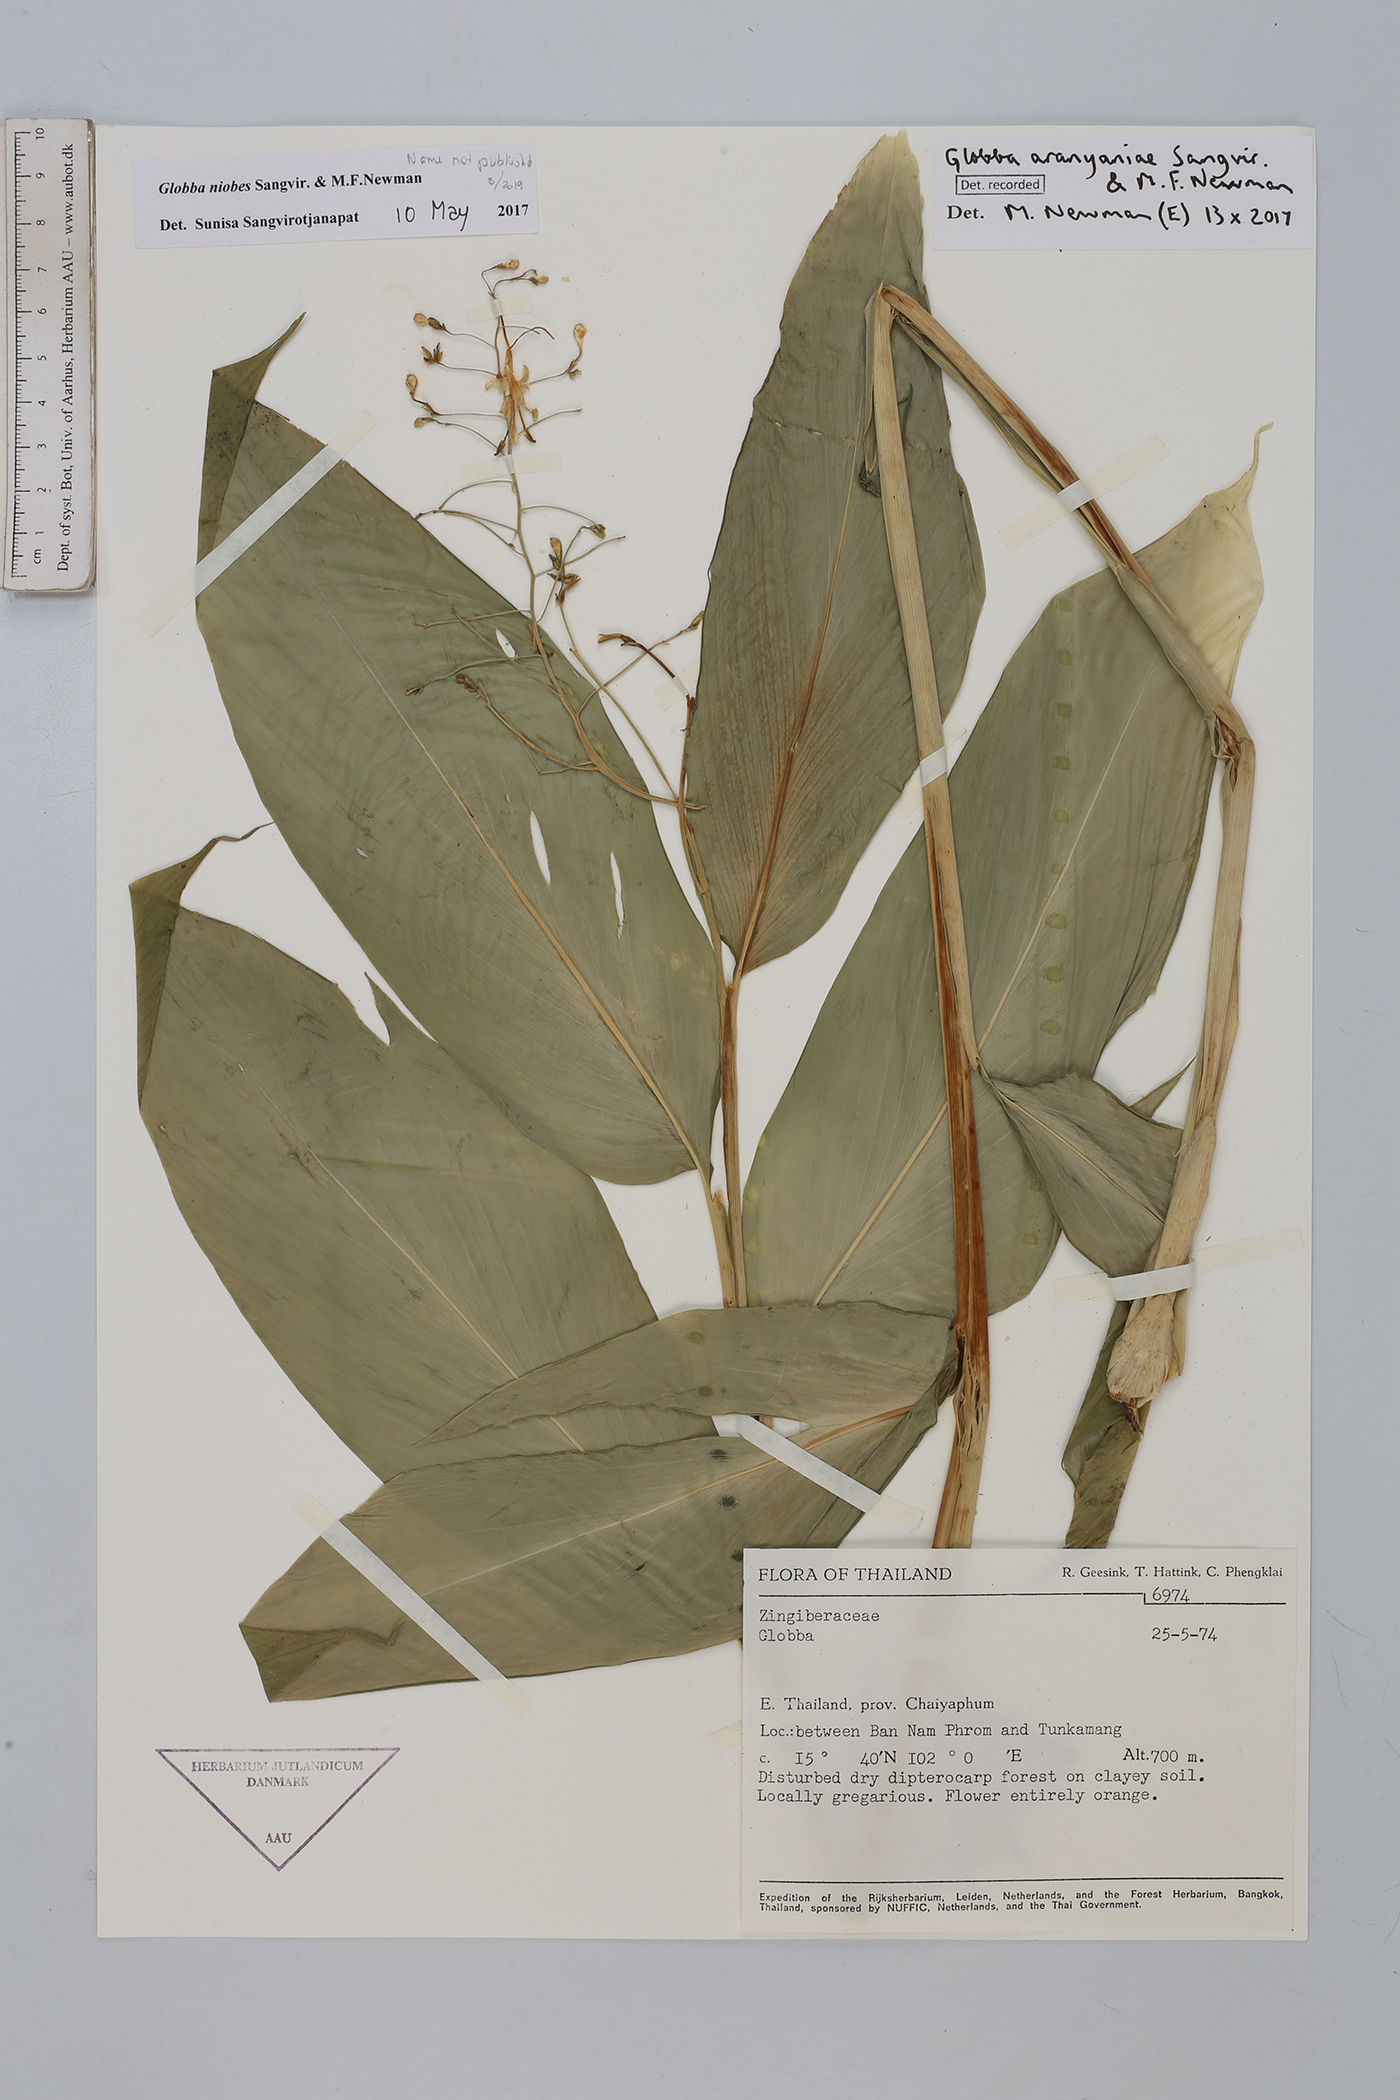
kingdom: Plantae
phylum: Tracheophyta
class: Liliopsida
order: Zingiberales
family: Zingiberaceae
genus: Globba
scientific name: Globba aranyaniae
